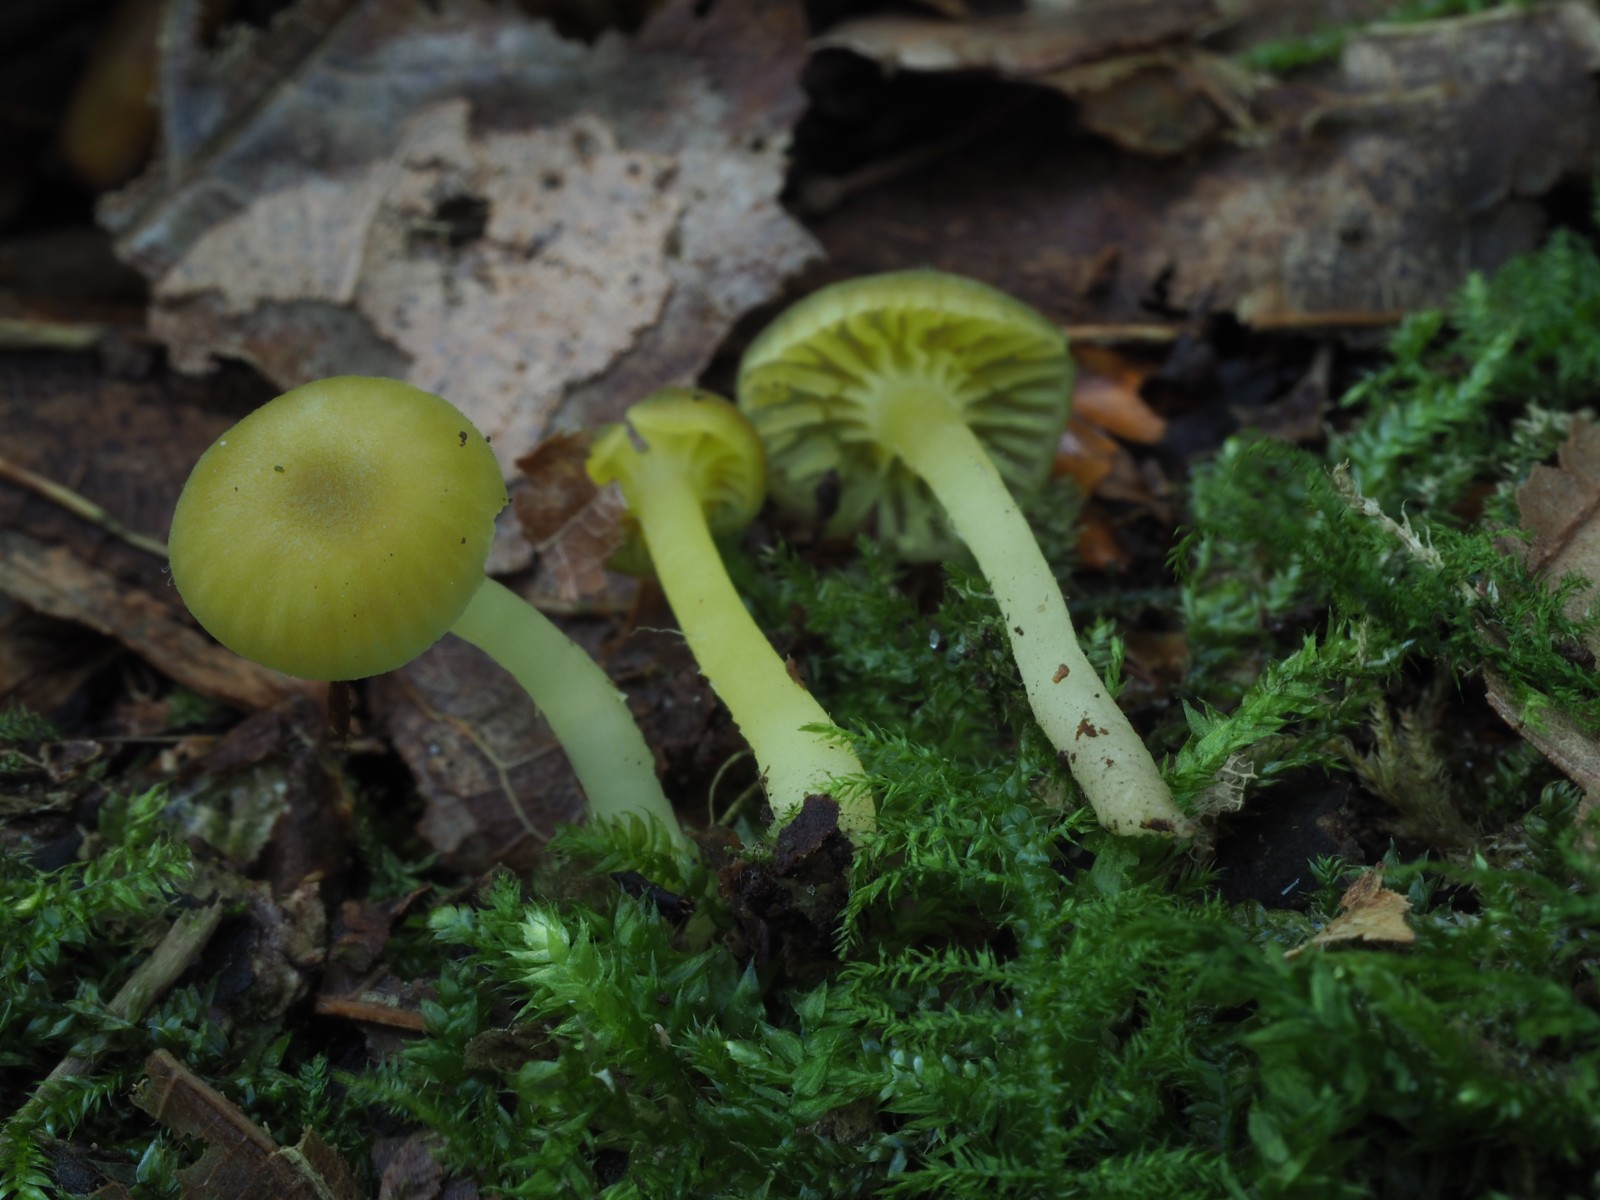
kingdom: Fungi
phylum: Basidiomycota
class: Agaricomycetes
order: Agaricales
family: Hygrophoraceae
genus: Chrysomphalina
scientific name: Chrysomphalina grossula
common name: stød-gyldenblad
